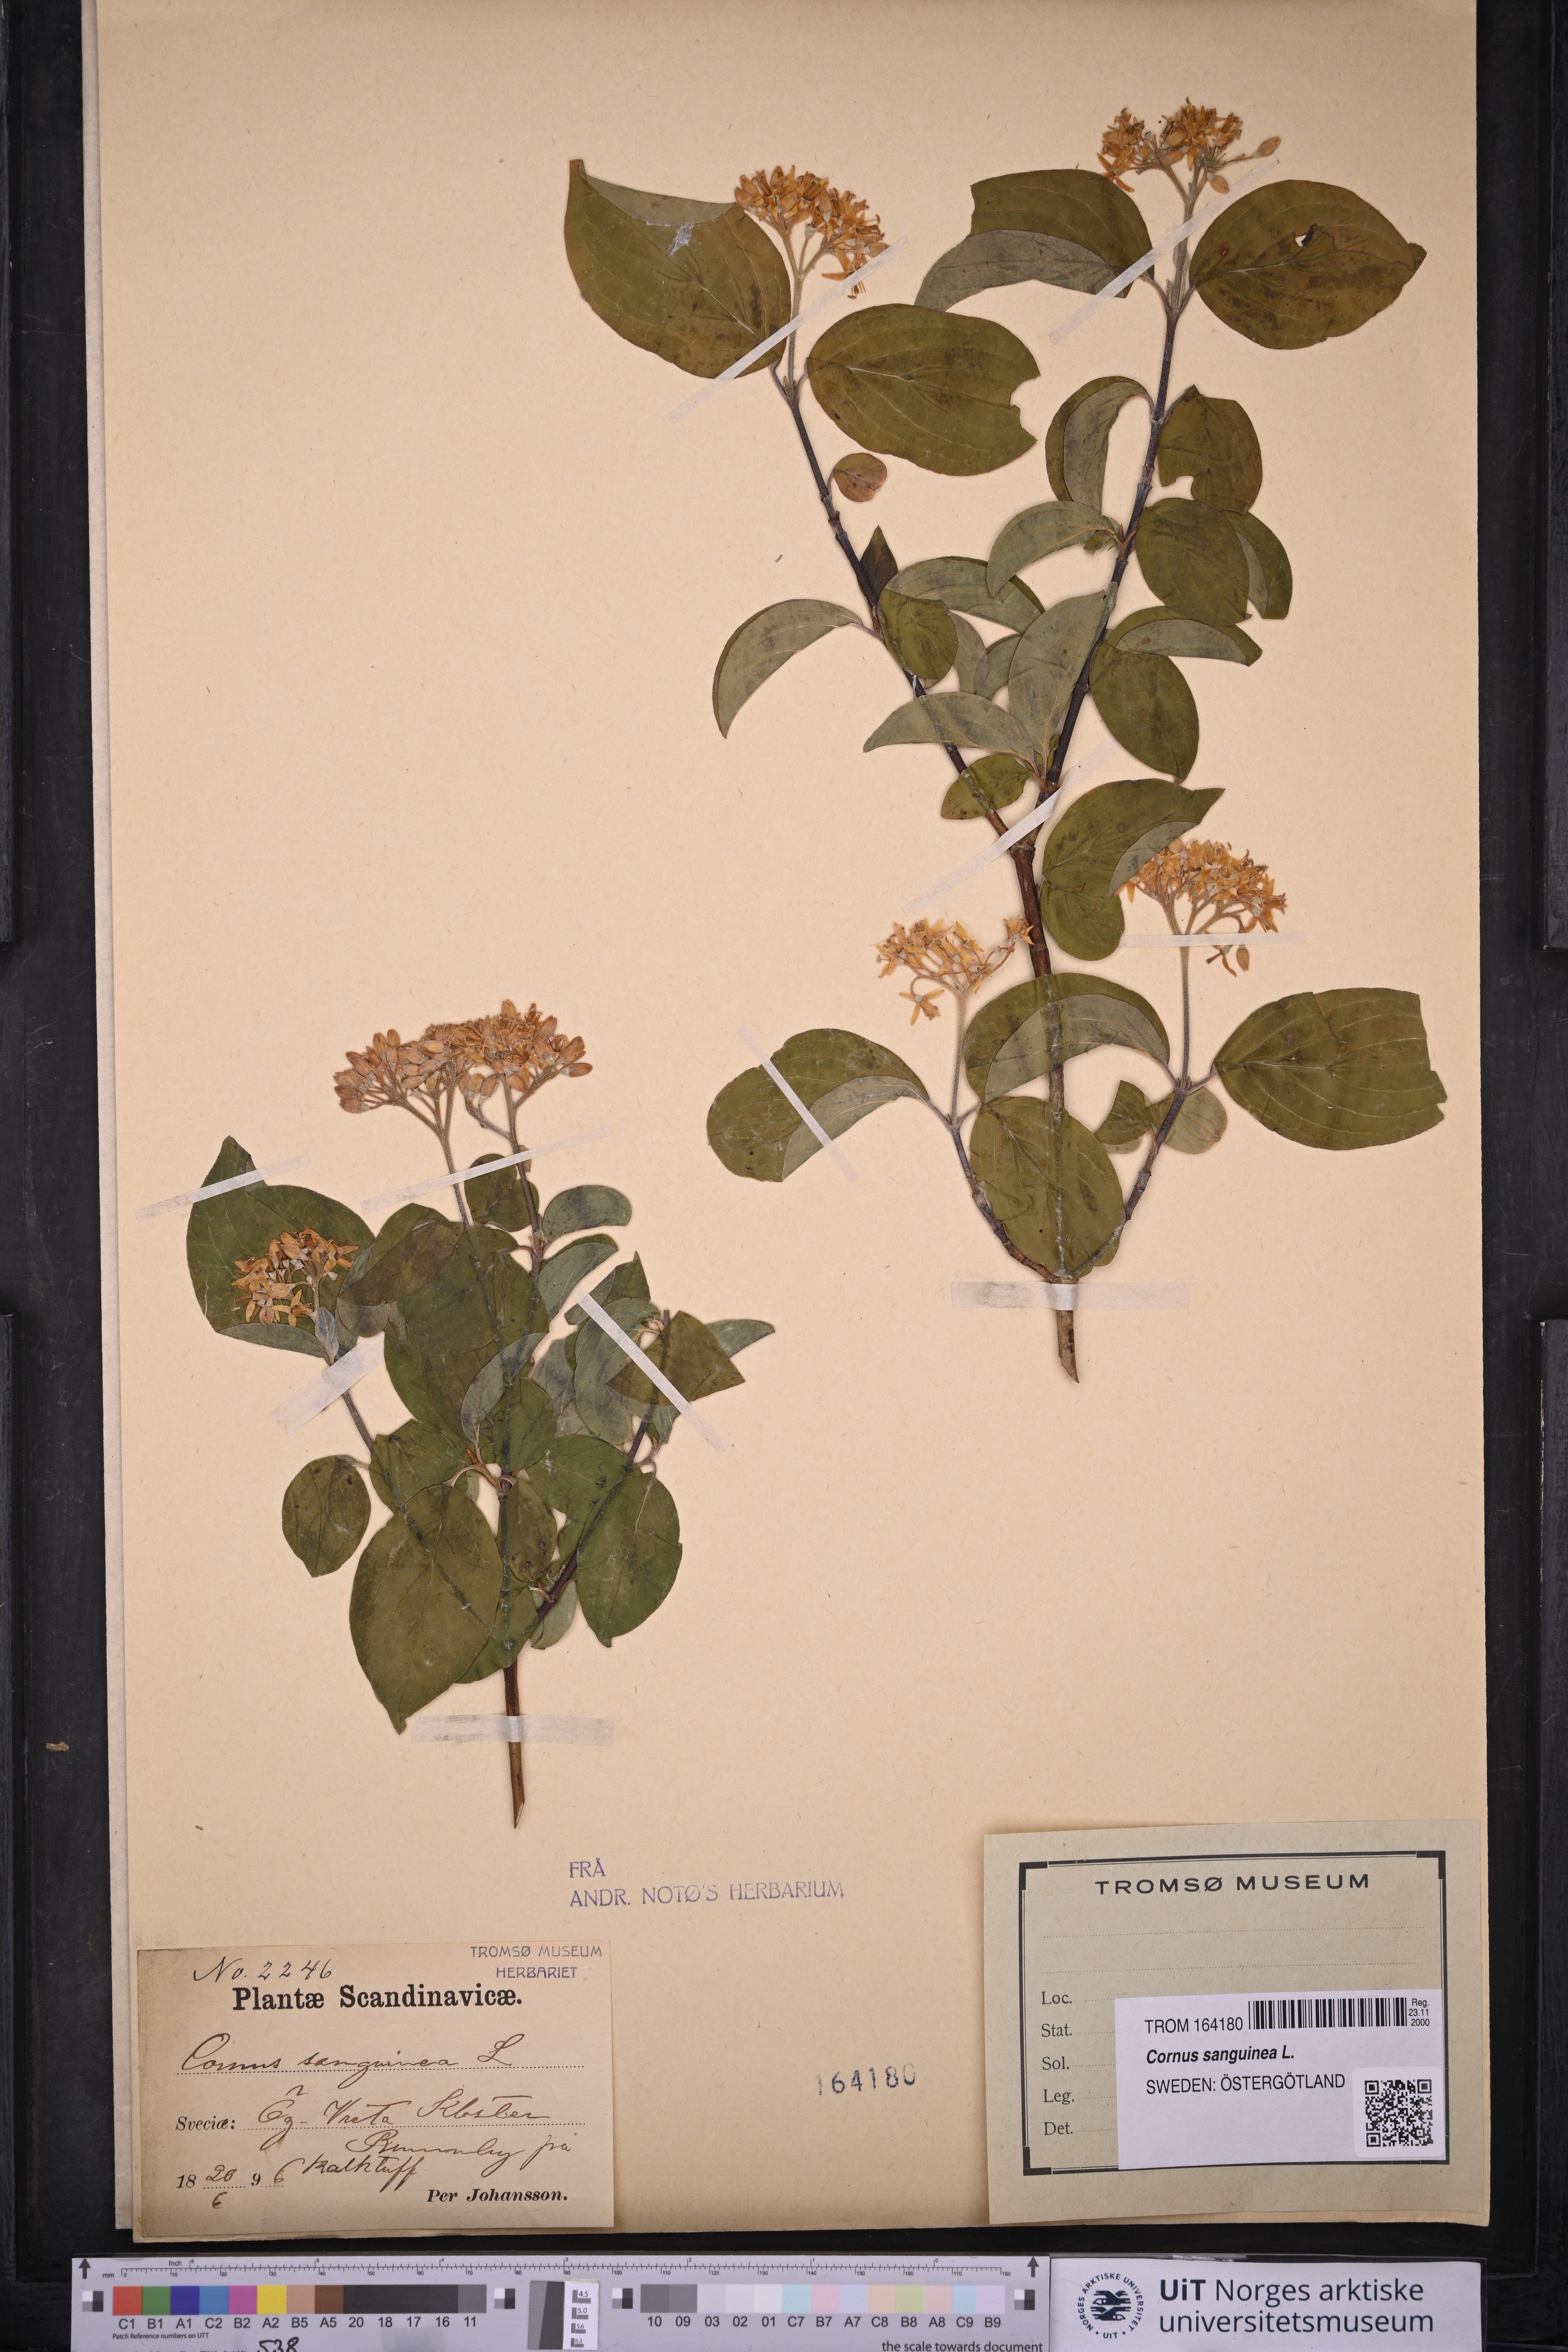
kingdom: Plantae
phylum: Tracheophyta
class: Magnoliopsida
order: Cornales
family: Cornaceae
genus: Cornus
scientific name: Cornus sanguinea
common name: Dogwood
